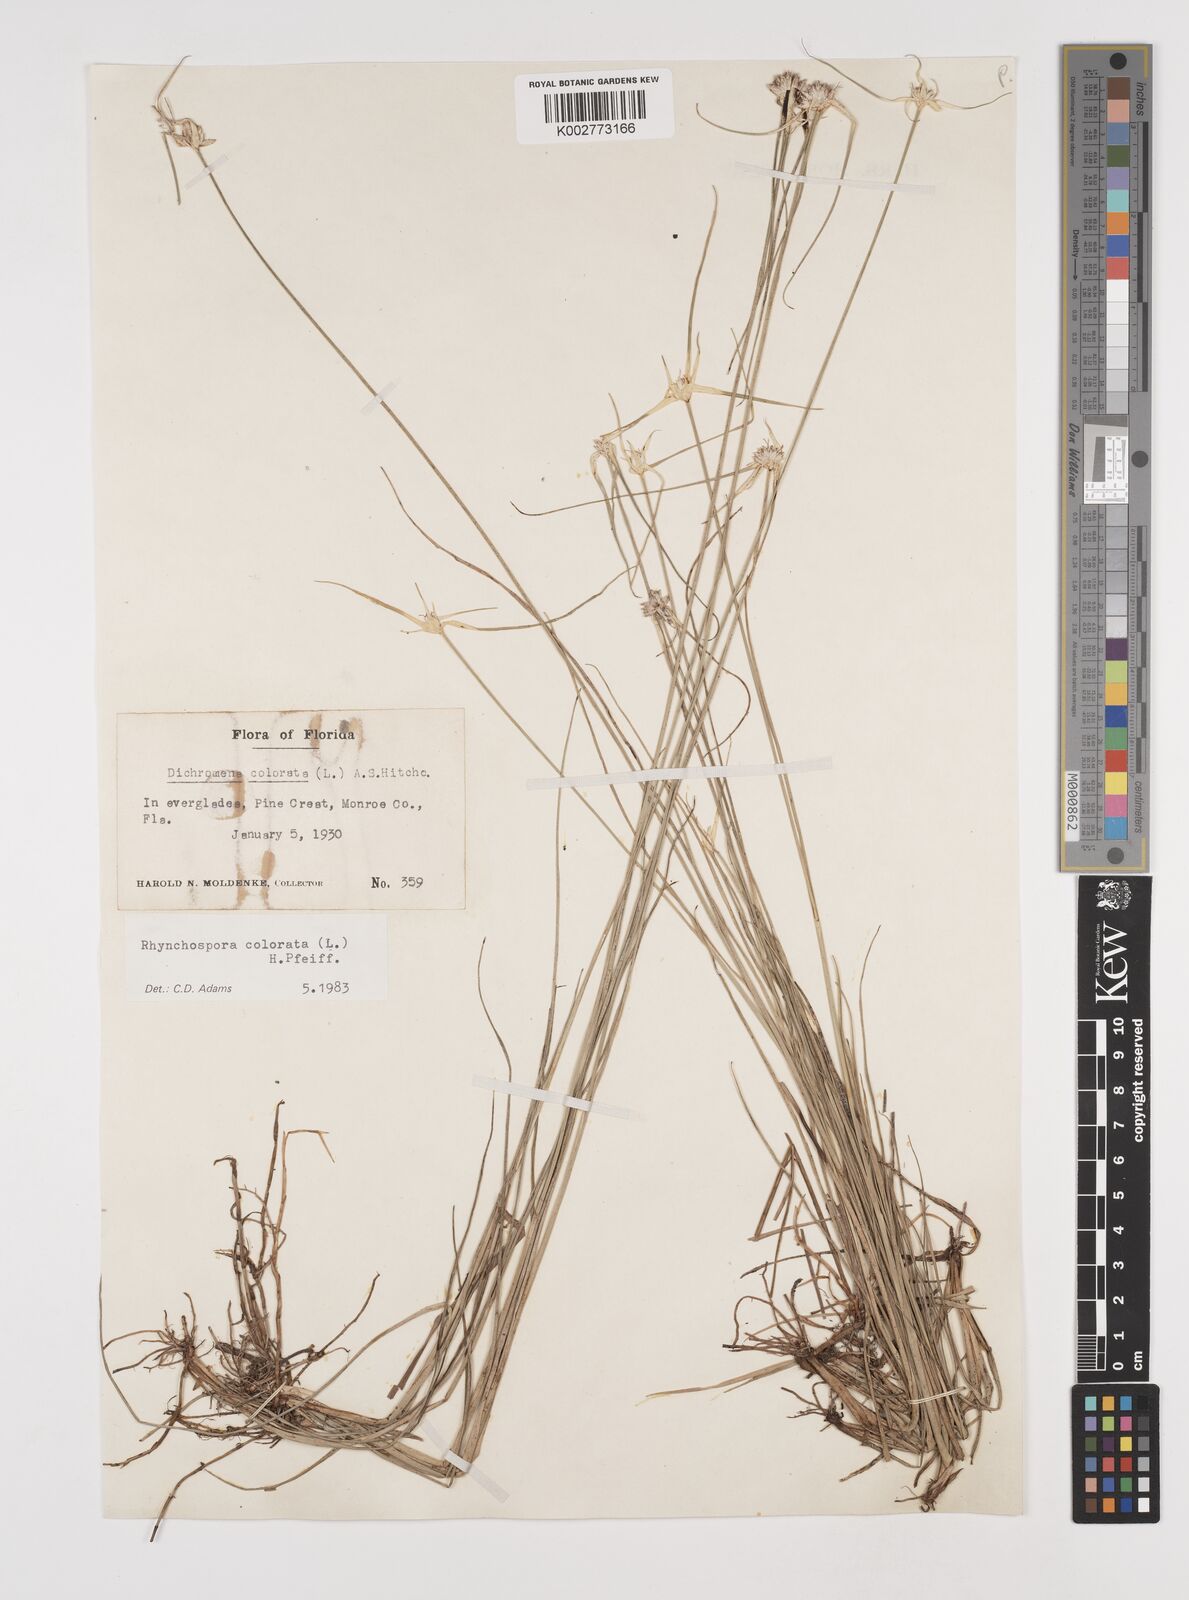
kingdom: Plantae
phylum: Tracheophyta
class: Liliopsida
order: Poales
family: Cyperaceae
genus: Rhynchospora
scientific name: Rhynchospora colorata
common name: Star sedge
